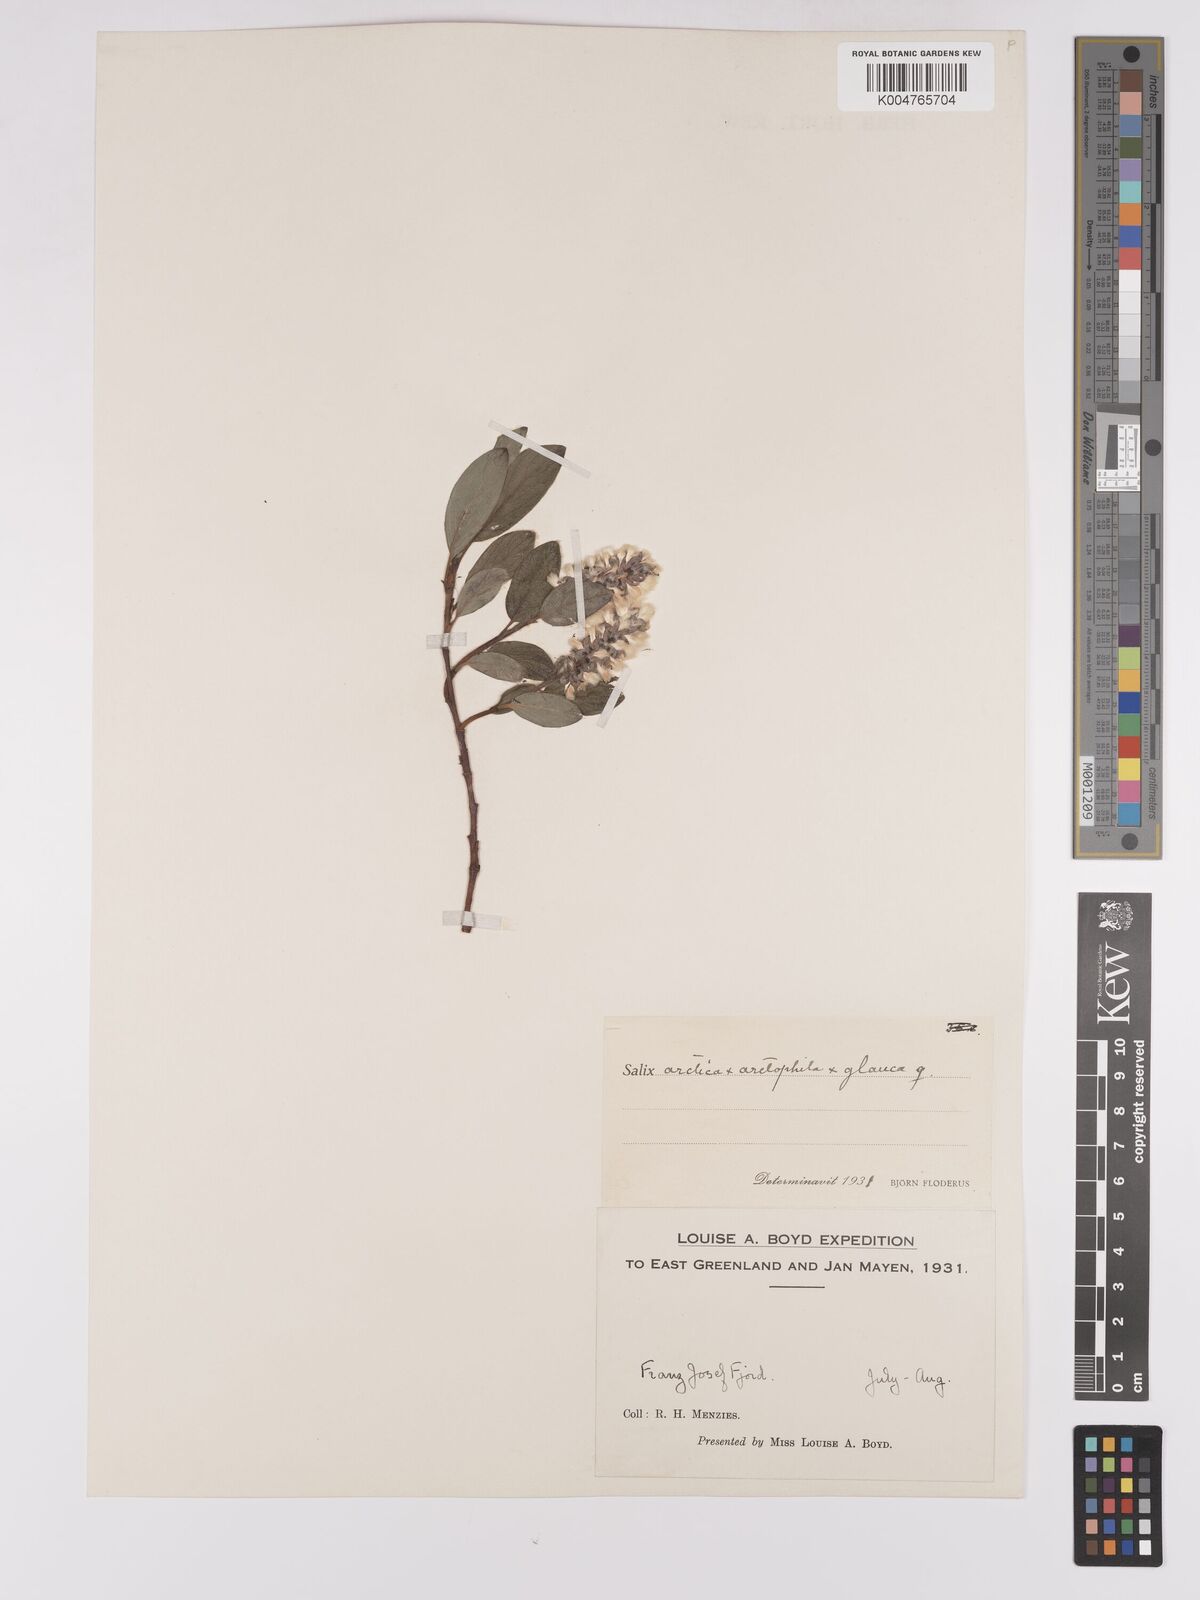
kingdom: Plantae
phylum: Tracheophyta
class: Magnoliopsida
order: Malpighiales
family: Salicaceae
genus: Salix
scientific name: Salix arctophila
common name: Greenland willow
